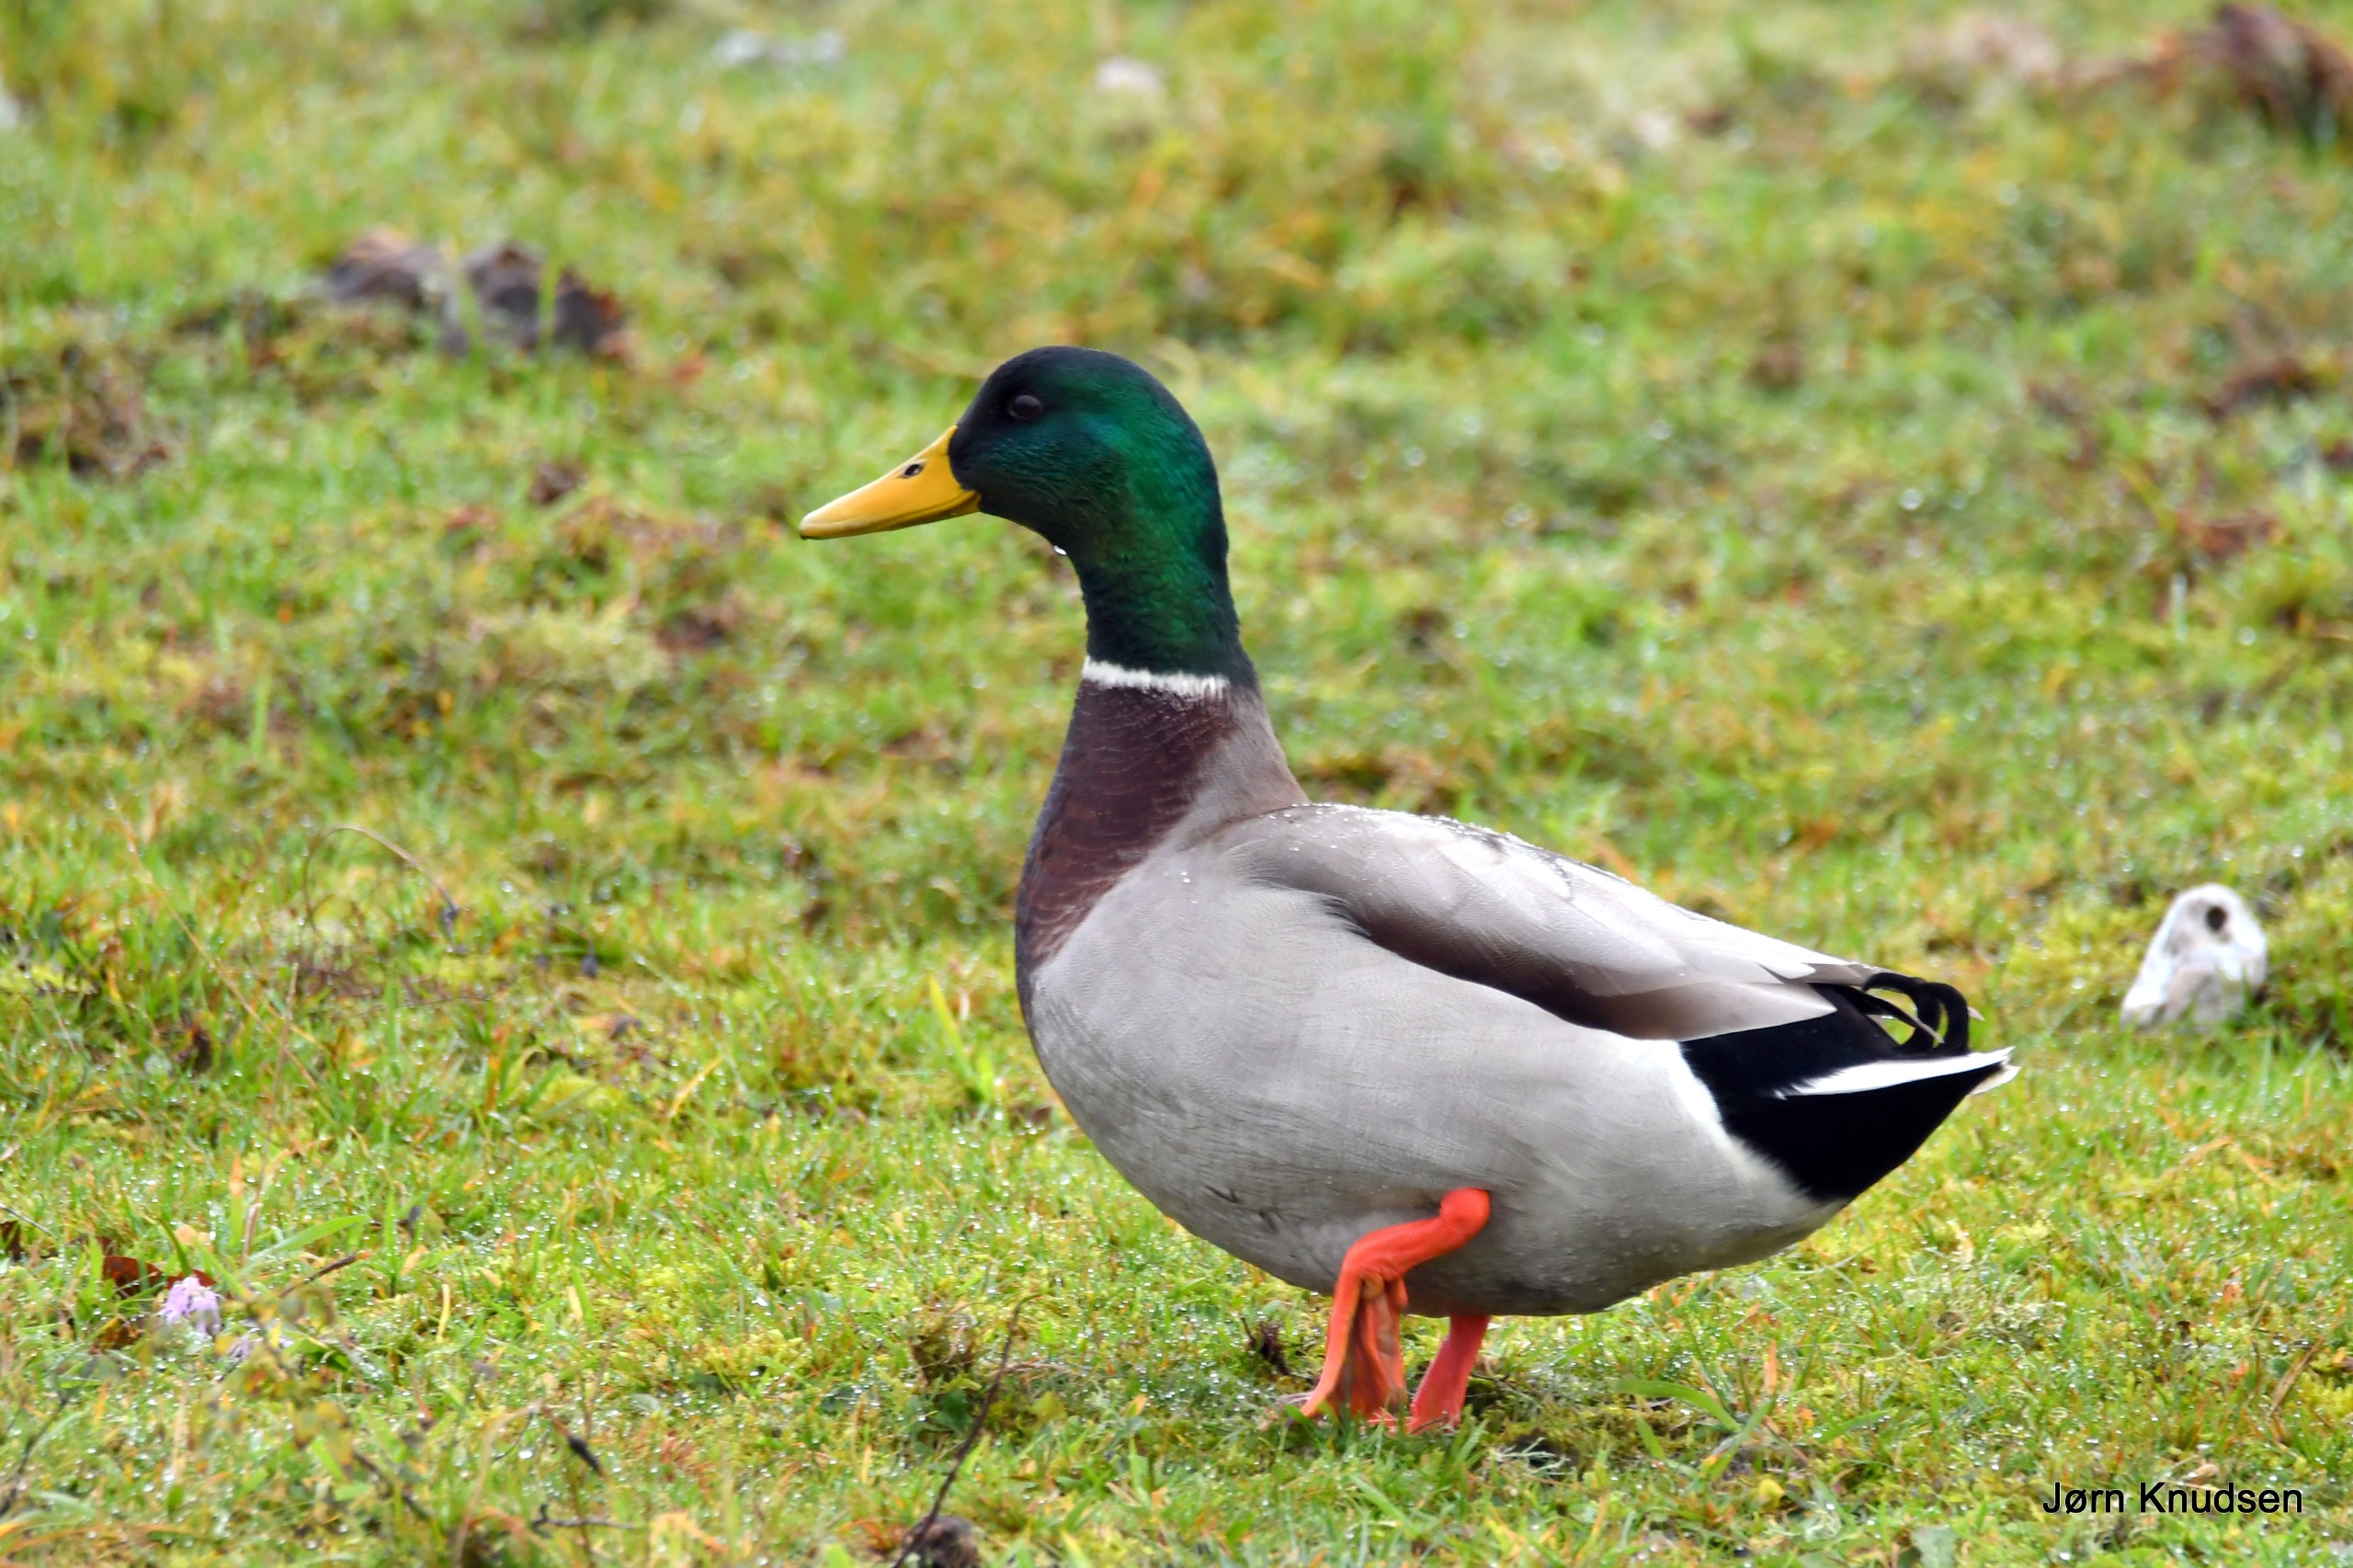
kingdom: Animalia
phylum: Chordata
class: Aves
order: Anseriformes
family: Anatidae
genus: Anas
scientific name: Anas platyrhynchos
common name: Gråand
